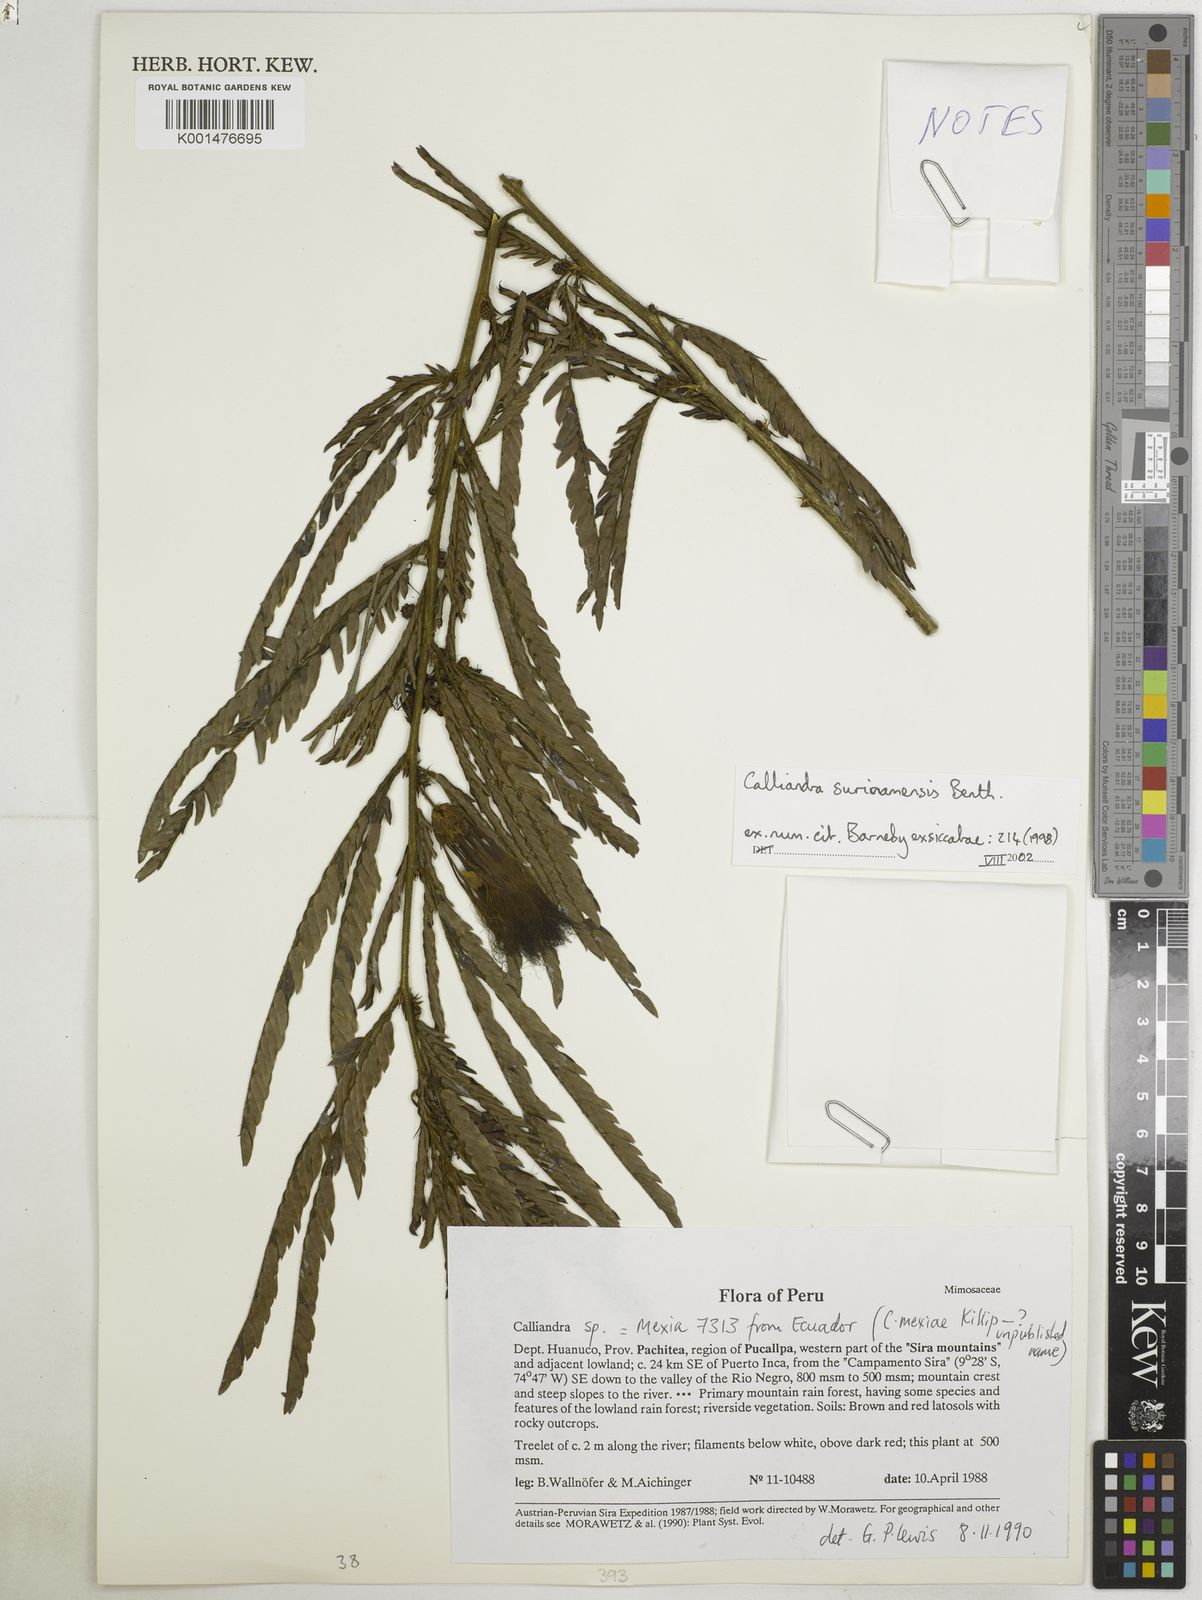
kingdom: Plantae
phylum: Tracheophyta
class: Magnoliopsida
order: Fabales
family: Fabaceae
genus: Calliandra
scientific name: Calliandra surinamensis
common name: Pink powder puff
